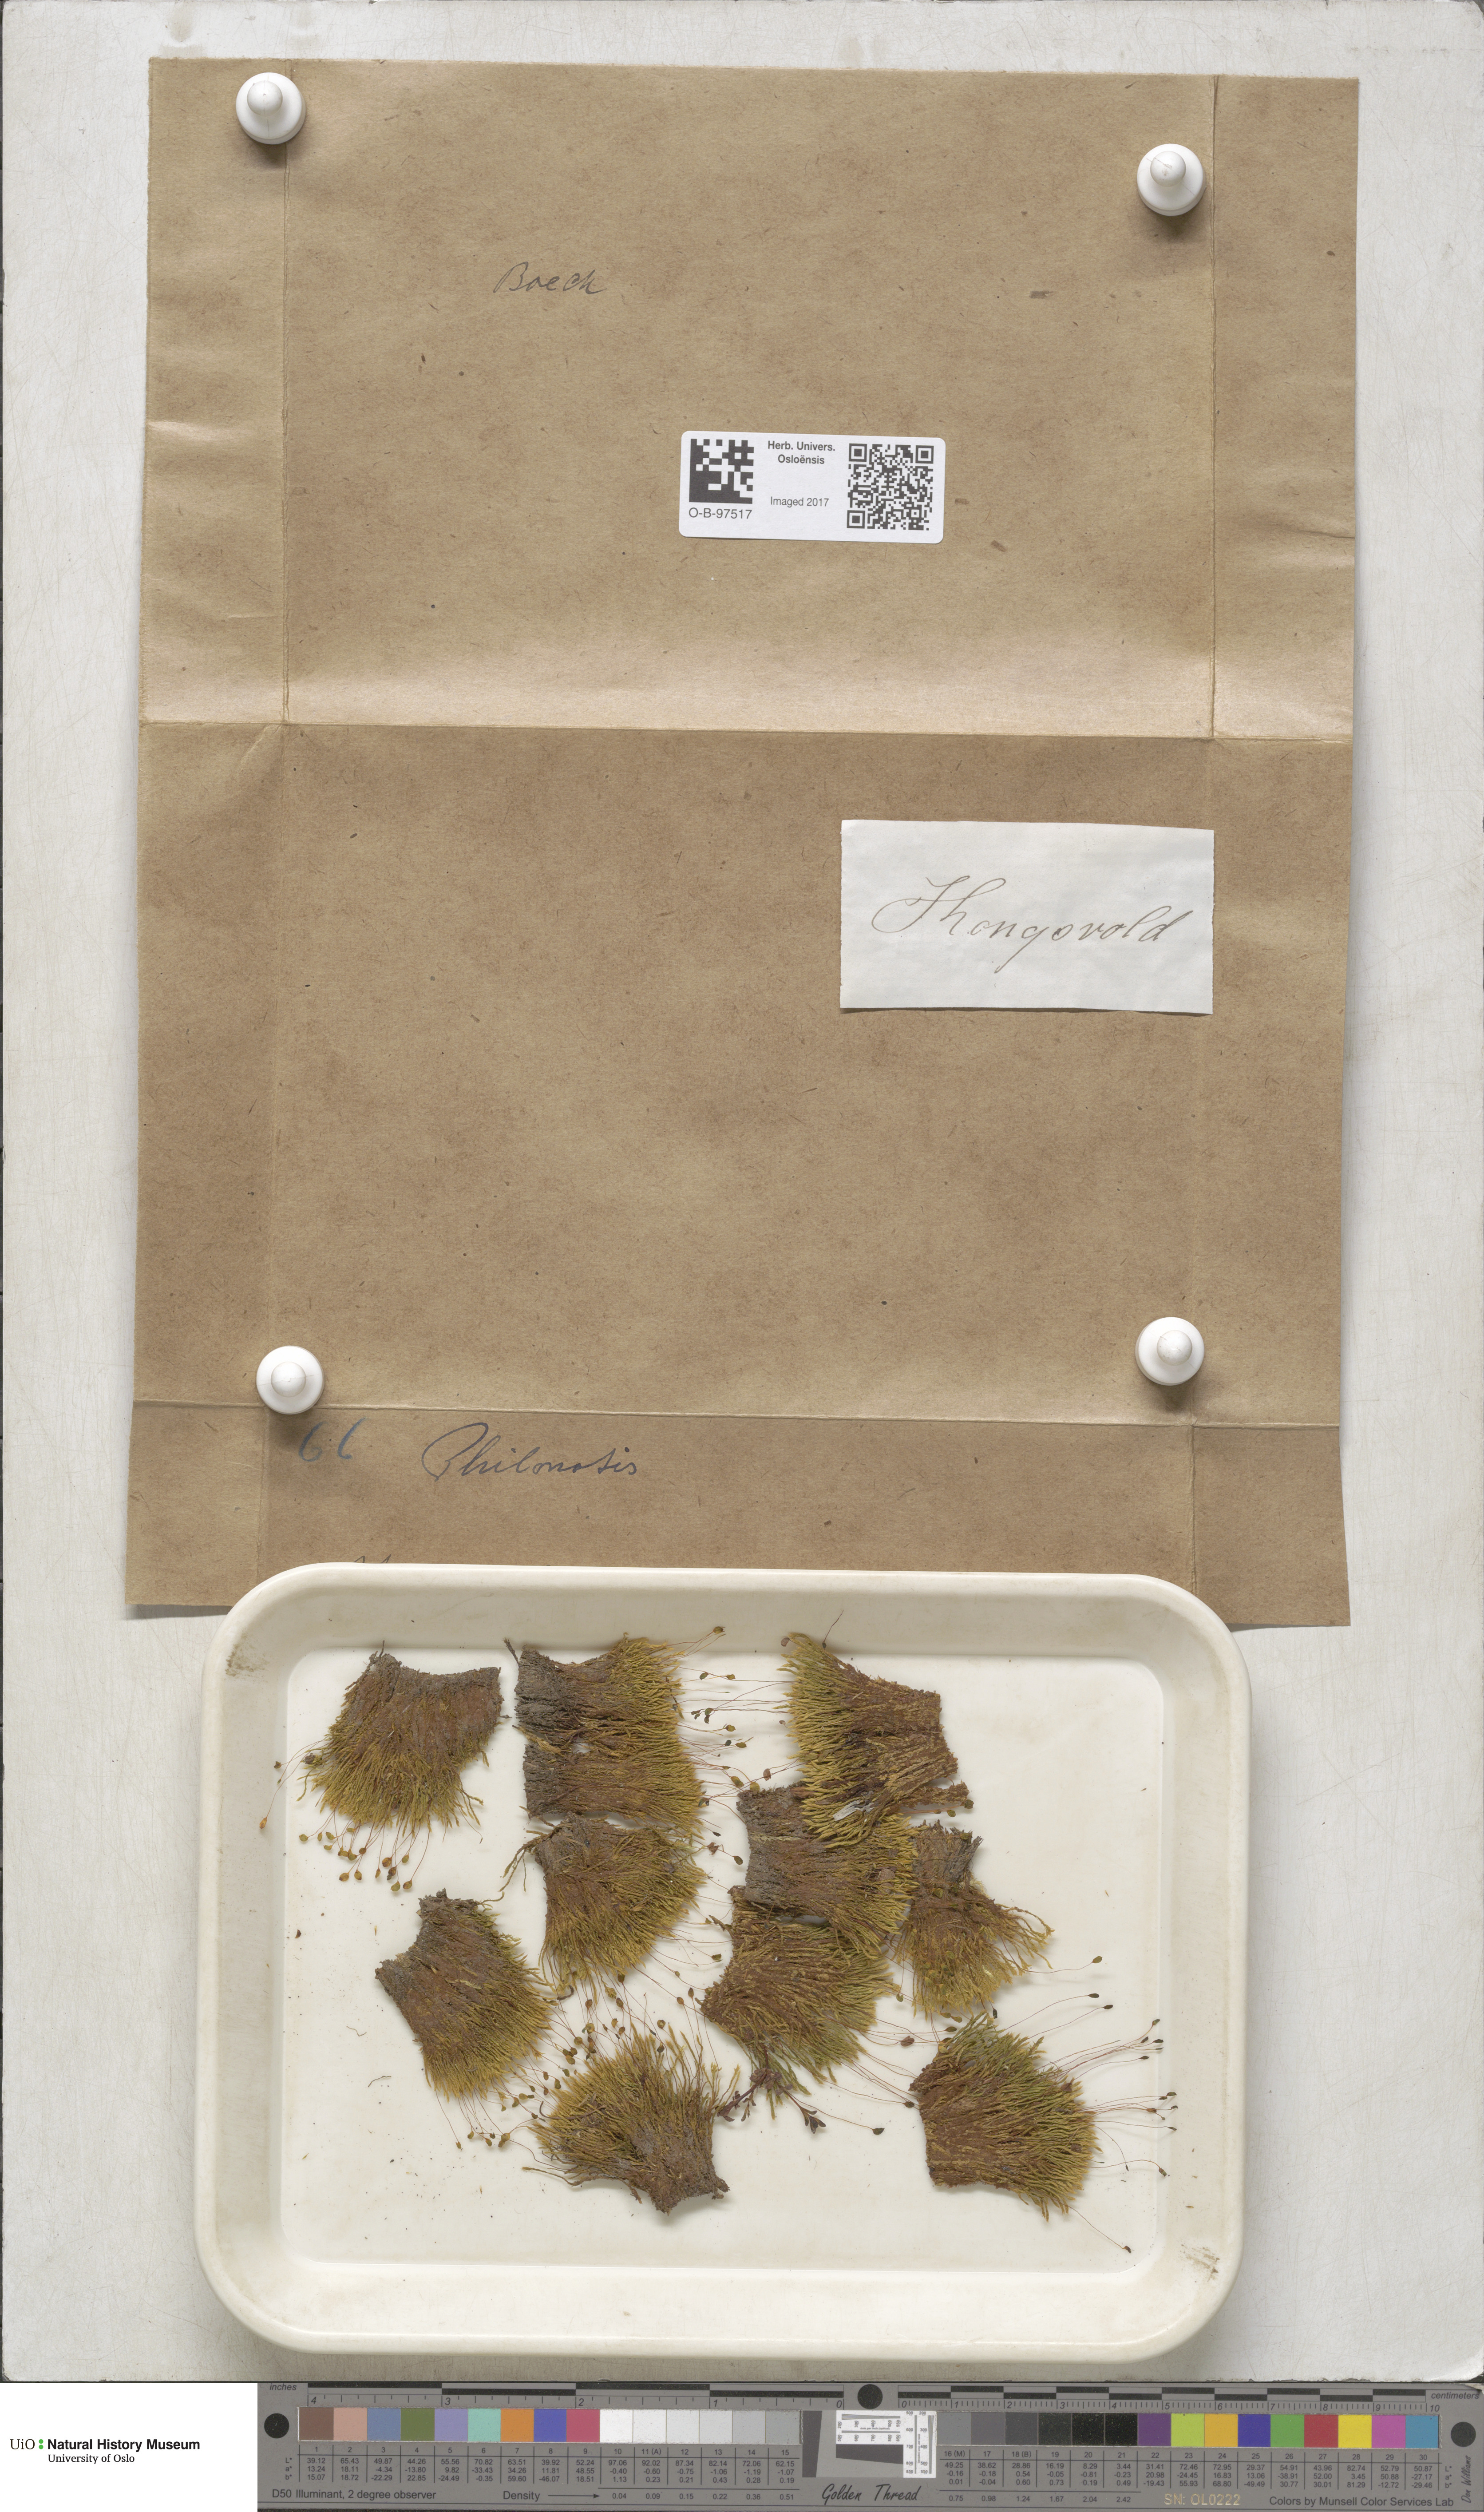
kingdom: Plantae
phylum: Bryophyta
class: Bryopsida
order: Bartramiales
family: Bartramiaceae
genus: Philonotis
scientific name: Philonotis
